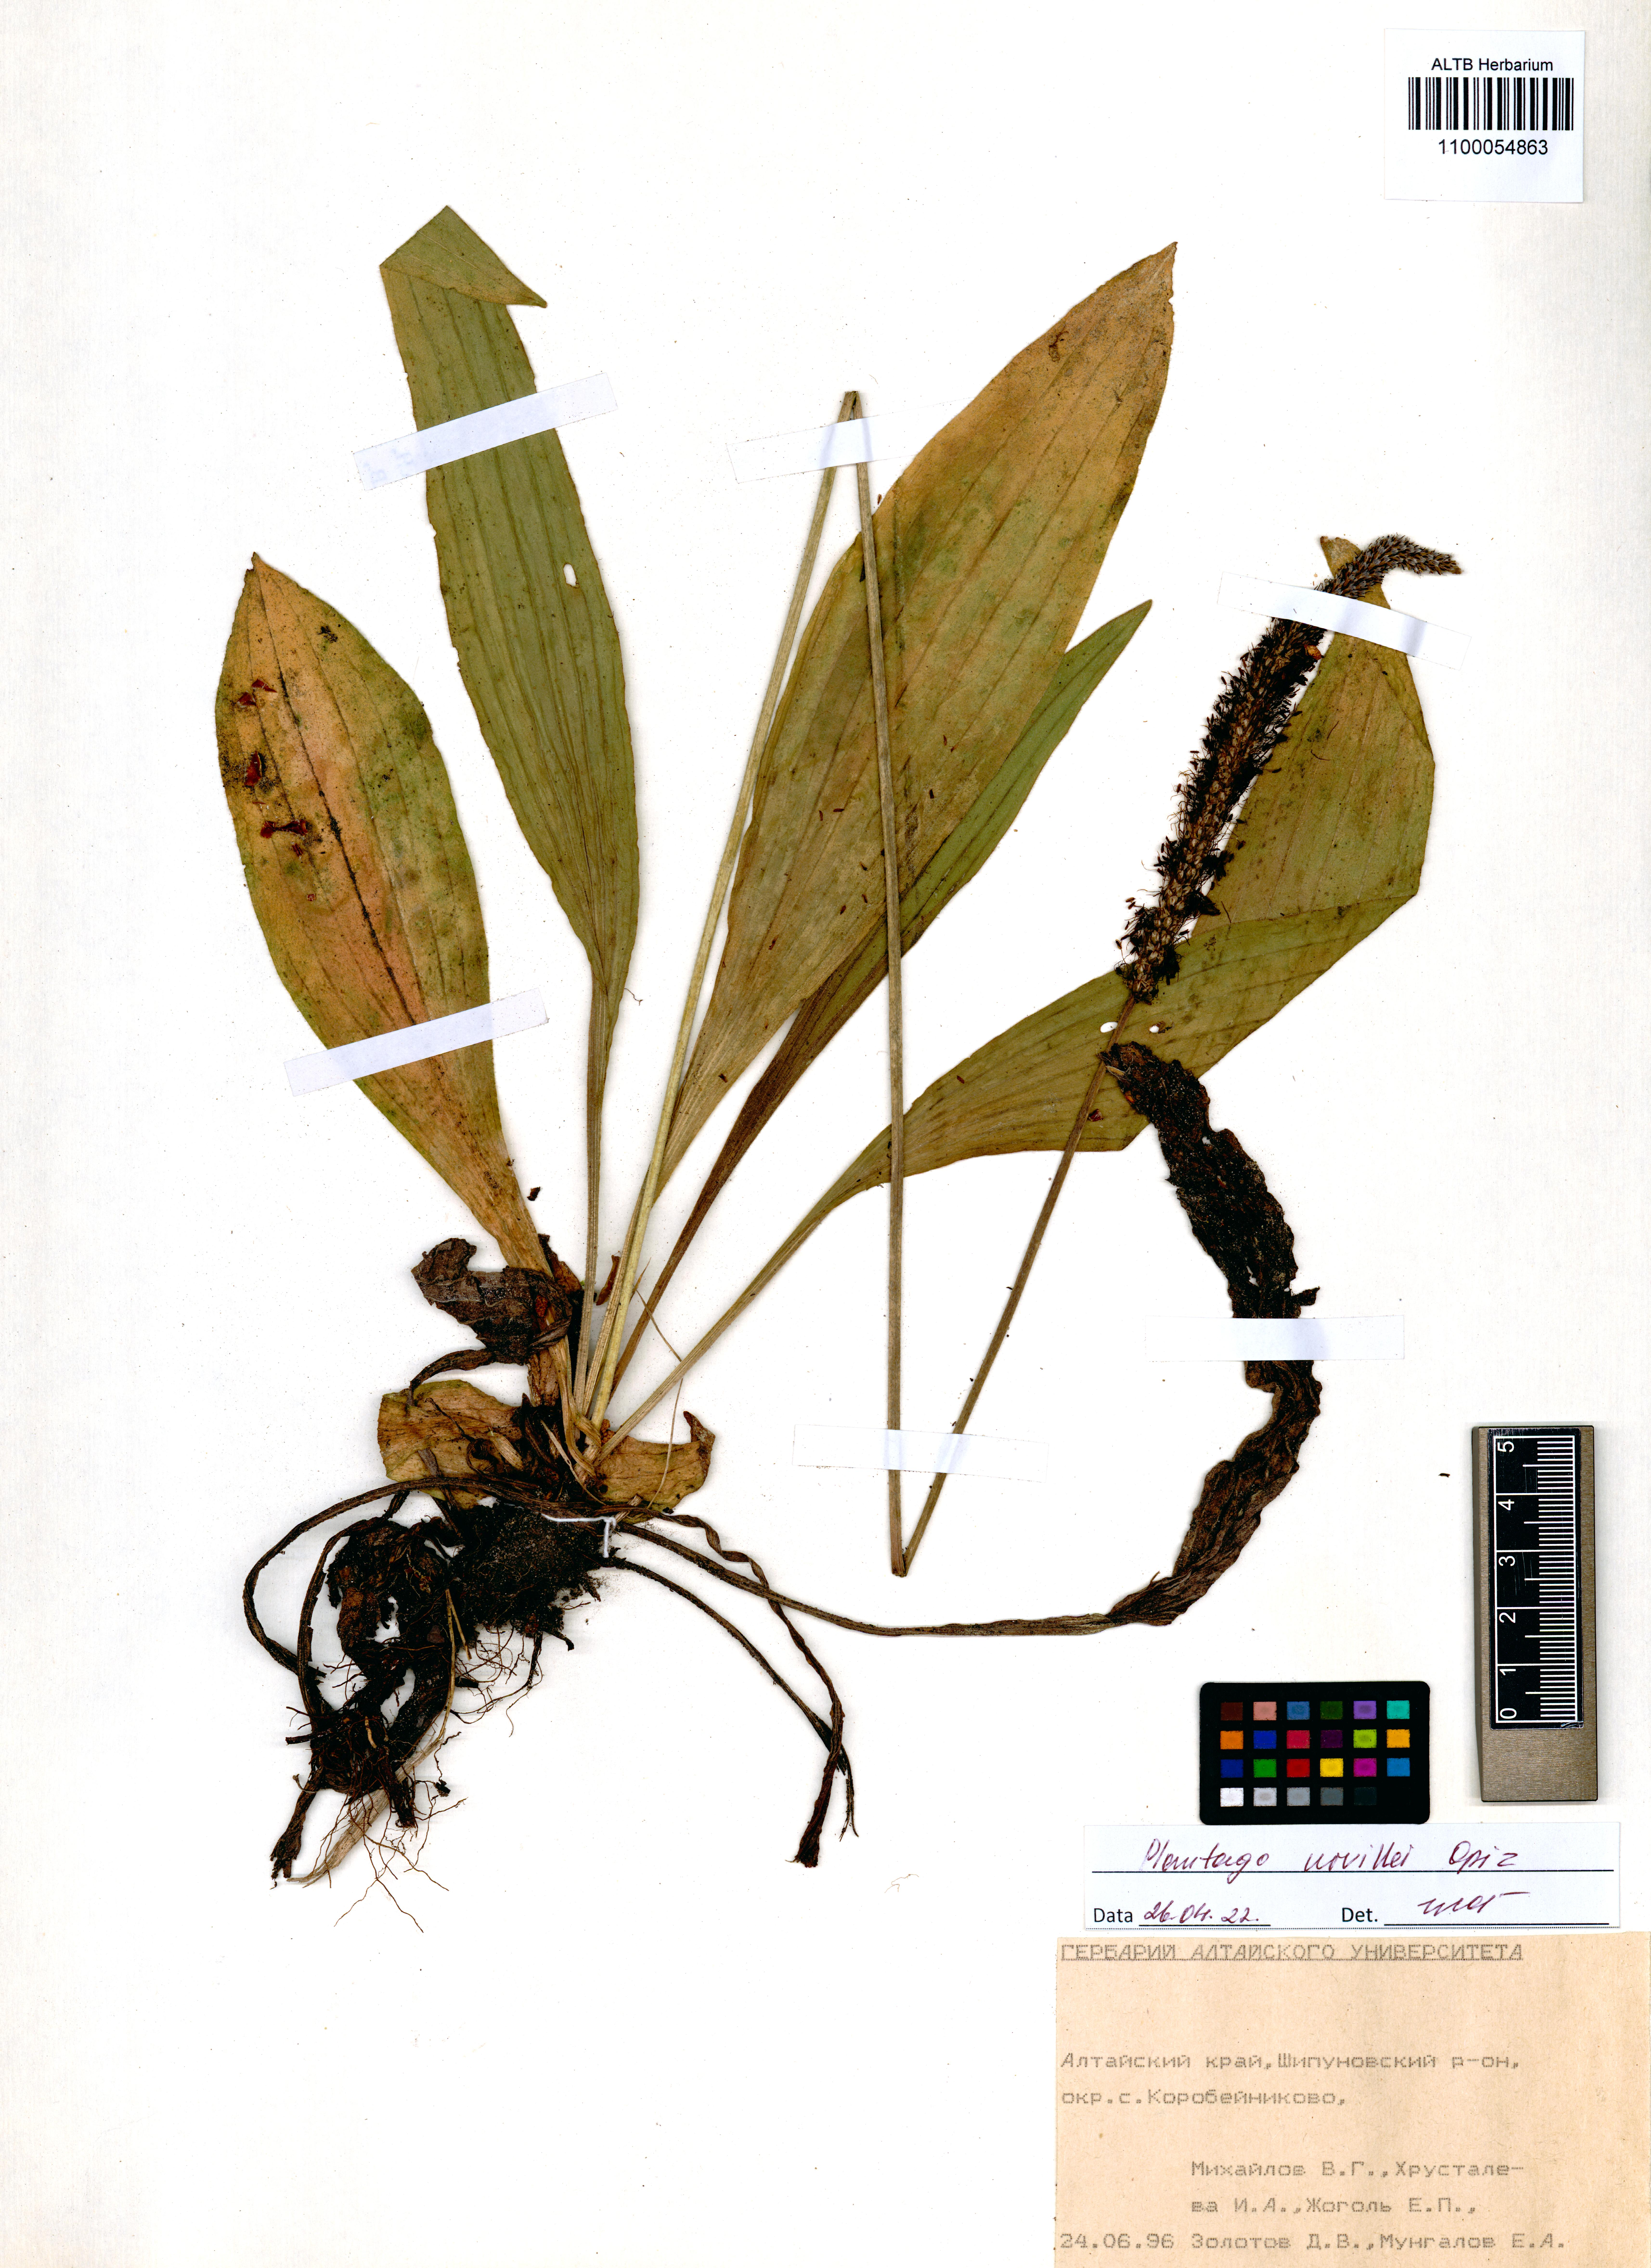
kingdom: Plantae
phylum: Tracheophyta
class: Magnoliopsida
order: Lamiales
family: Plantaginaceae
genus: Plantago
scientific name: Plantago urvillei
